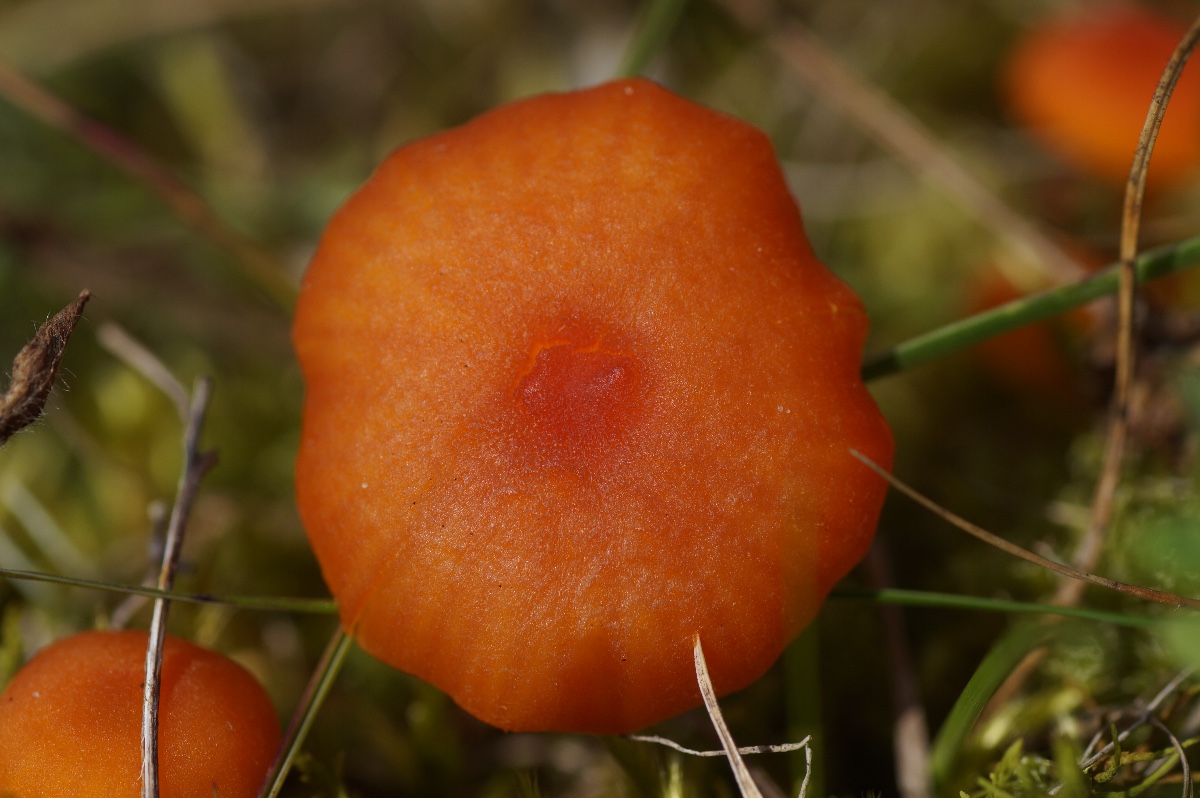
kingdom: Fungi
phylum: Basidiomycota
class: Agaricomycetes
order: Agaricales
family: Hygrophoraceae
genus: Hygrocybe
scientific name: Hygrocybe calciphila
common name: kalk-vokshat
